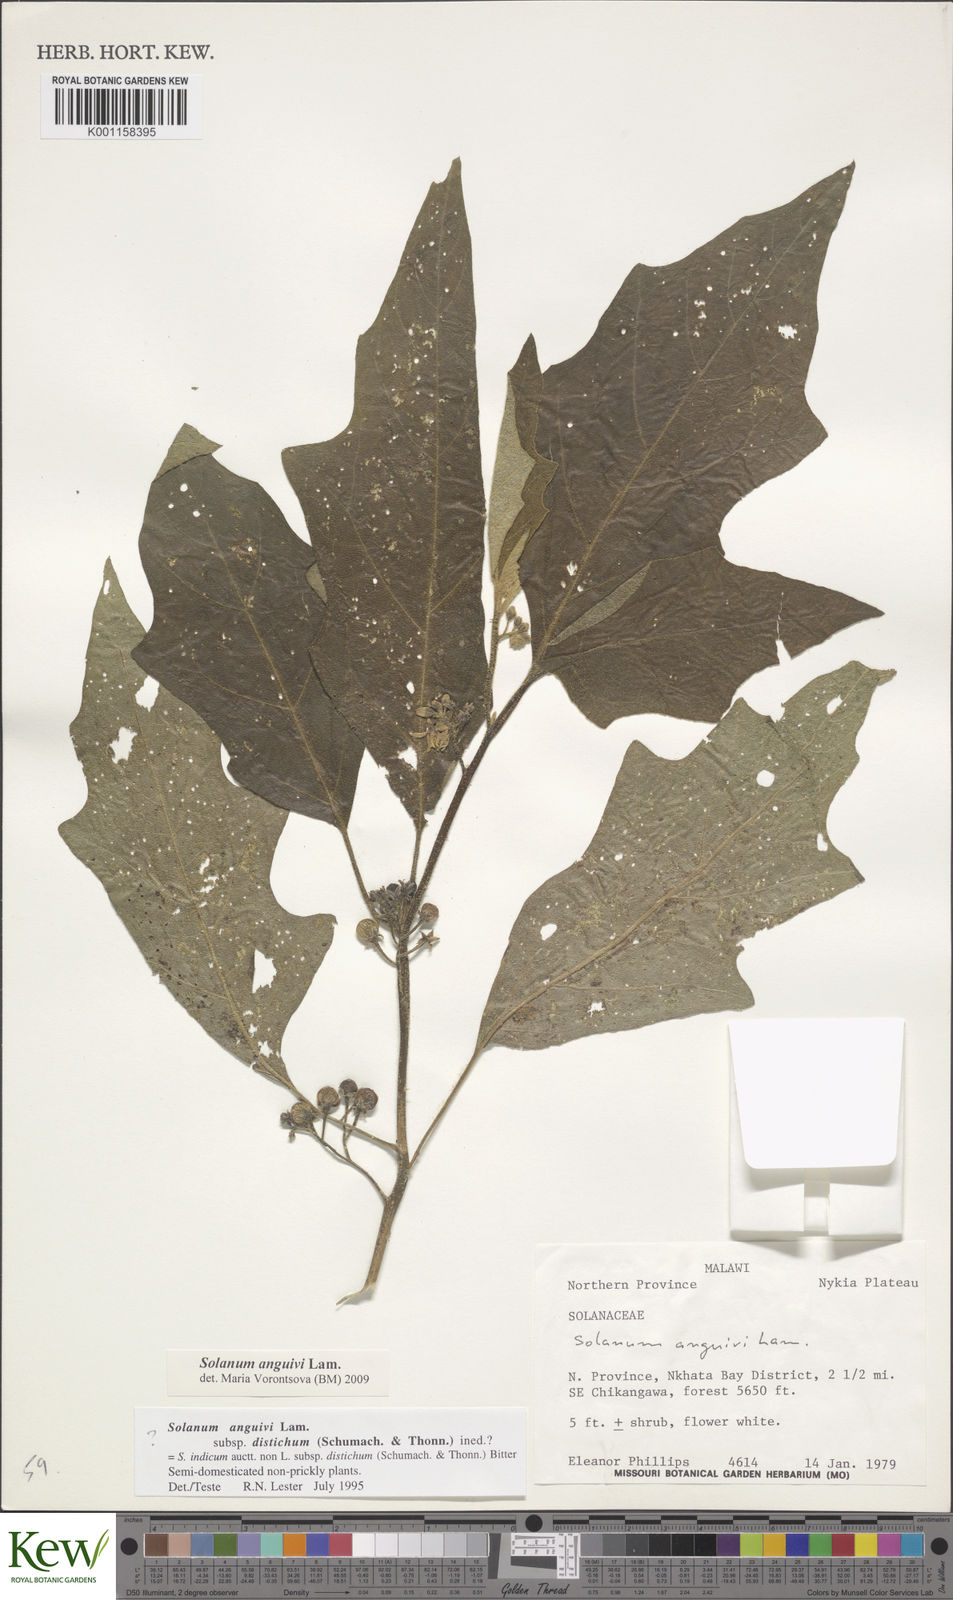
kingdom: Plantae
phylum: Tracheophyta
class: Magnoliopsida
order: Solanales
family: Solanaceae
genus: Solanum
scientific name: Solanum anguivi
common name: Forest bitterberry
